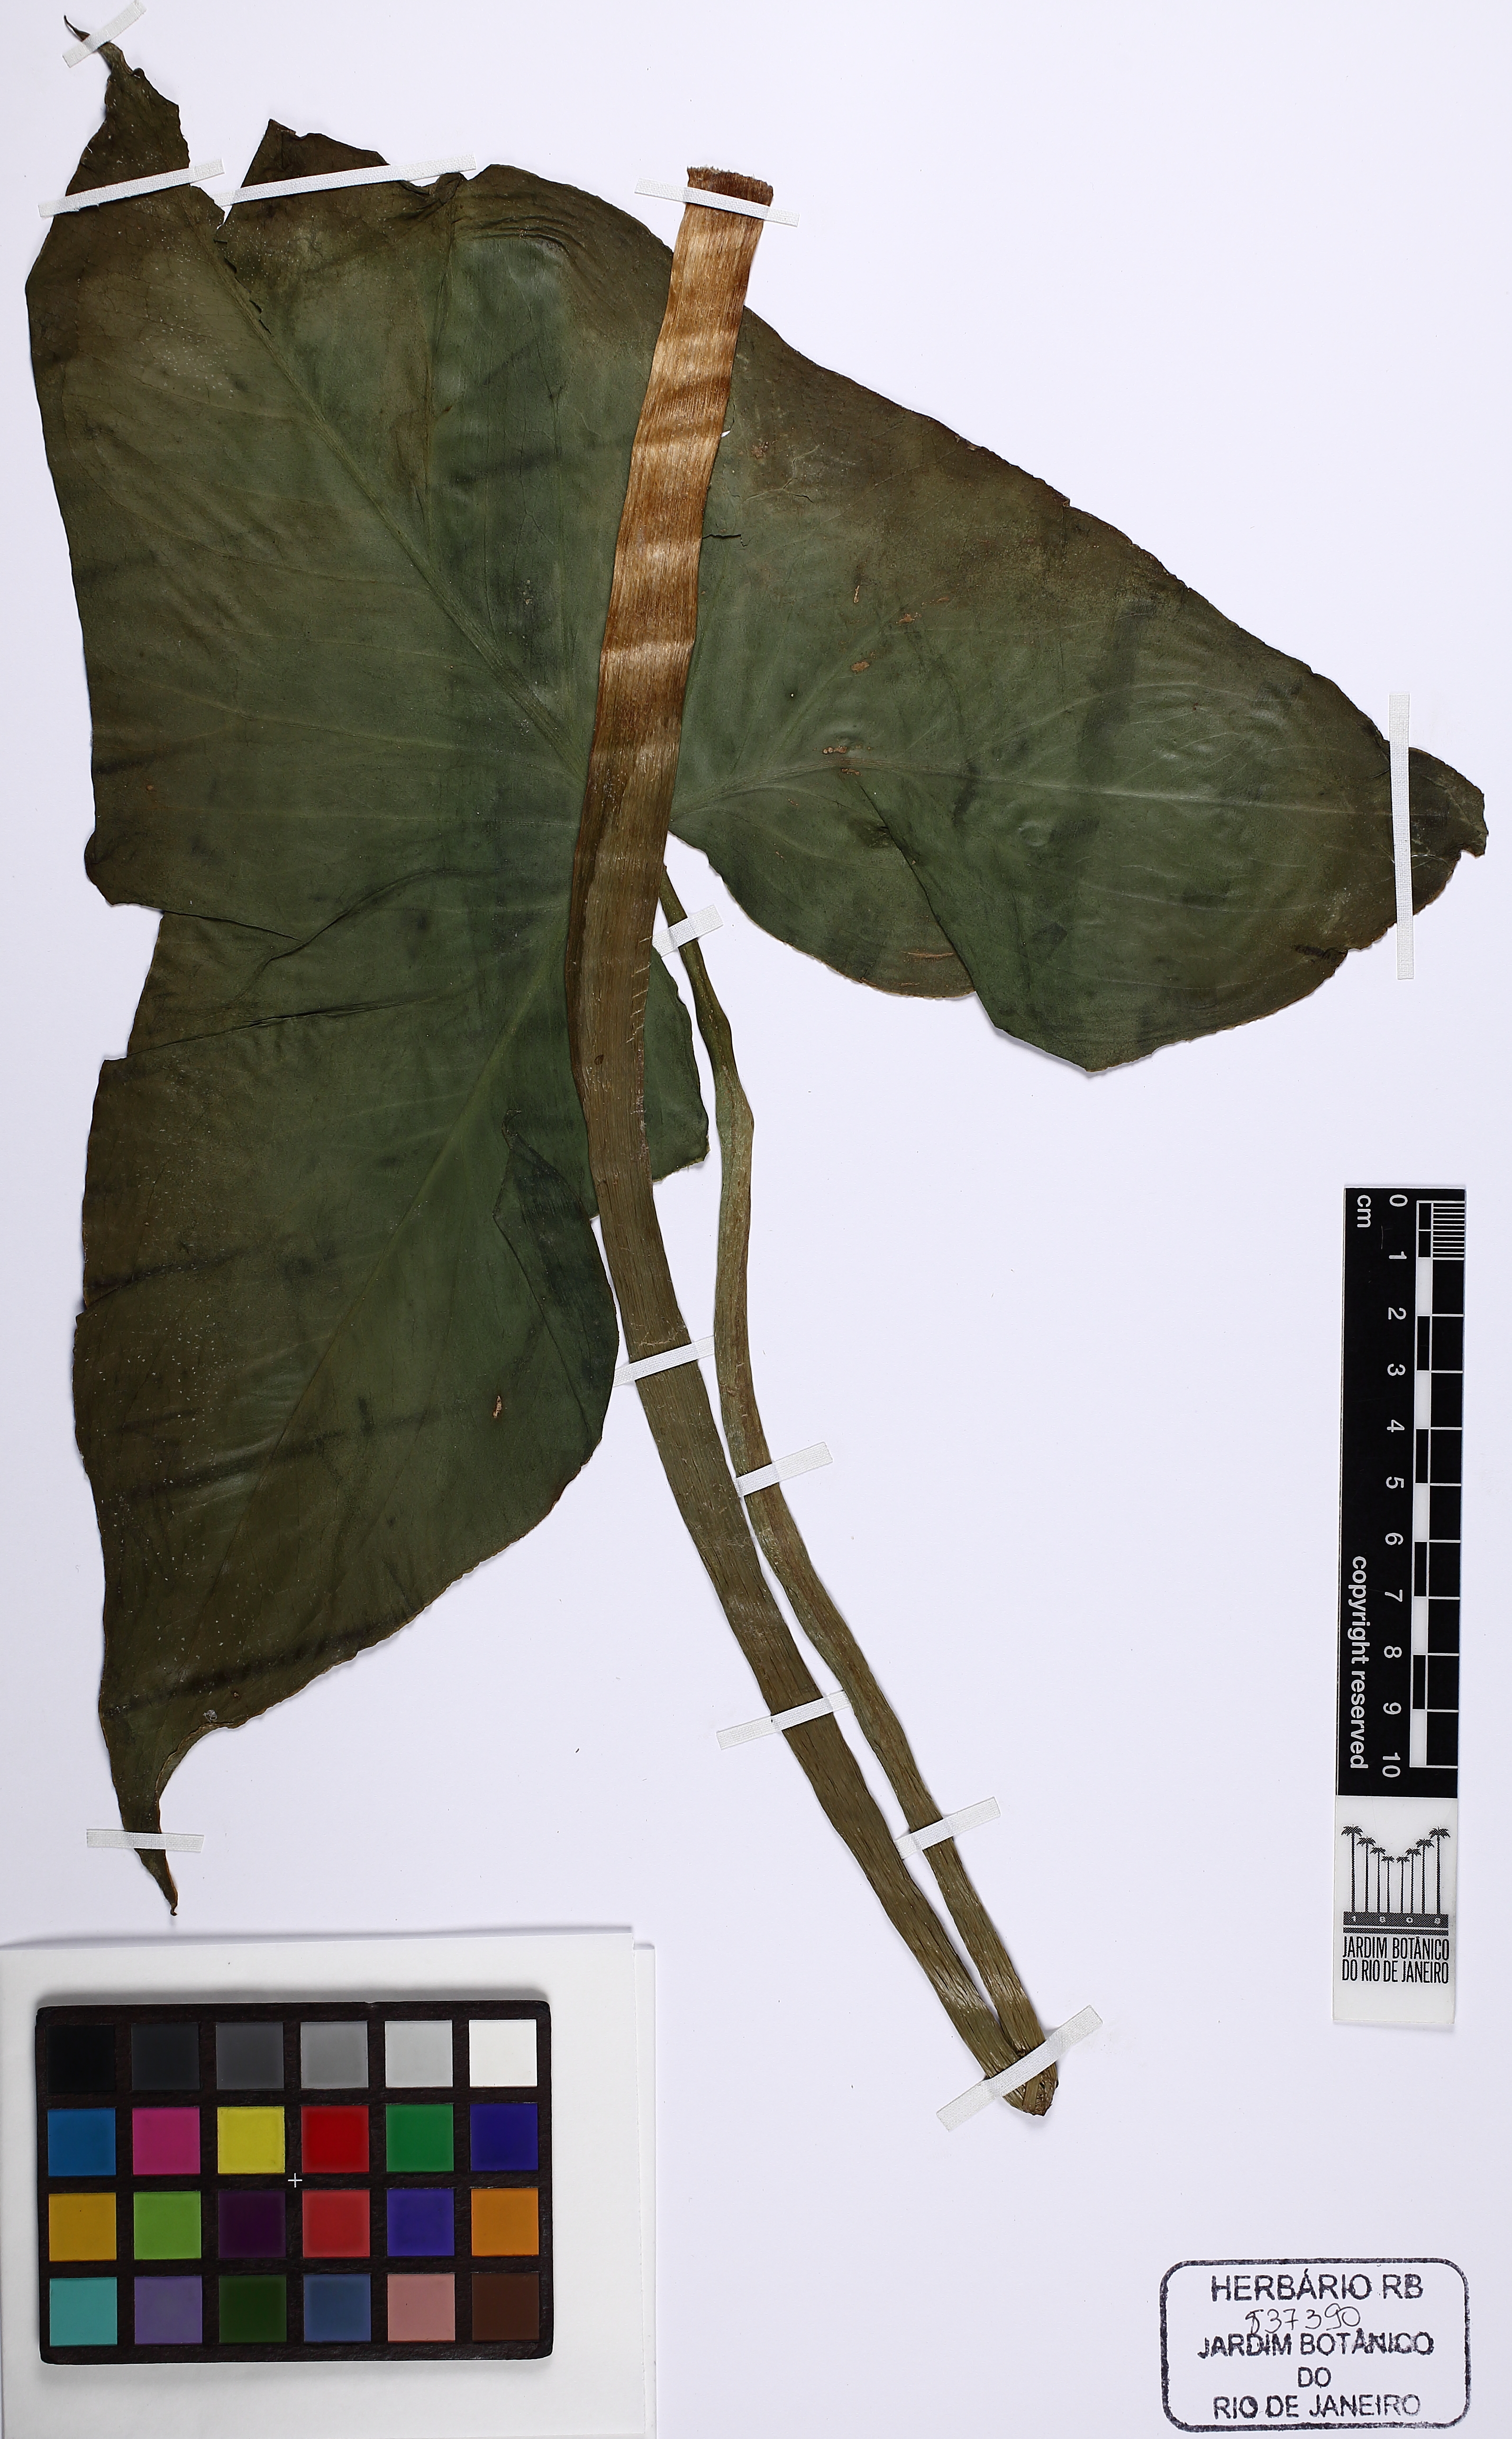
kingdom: Plantae
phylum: Tracheophyta
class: Liliopsida
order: Alismatales
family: Araceae
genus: Urospatha
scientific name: Urospatha sagittifolia
